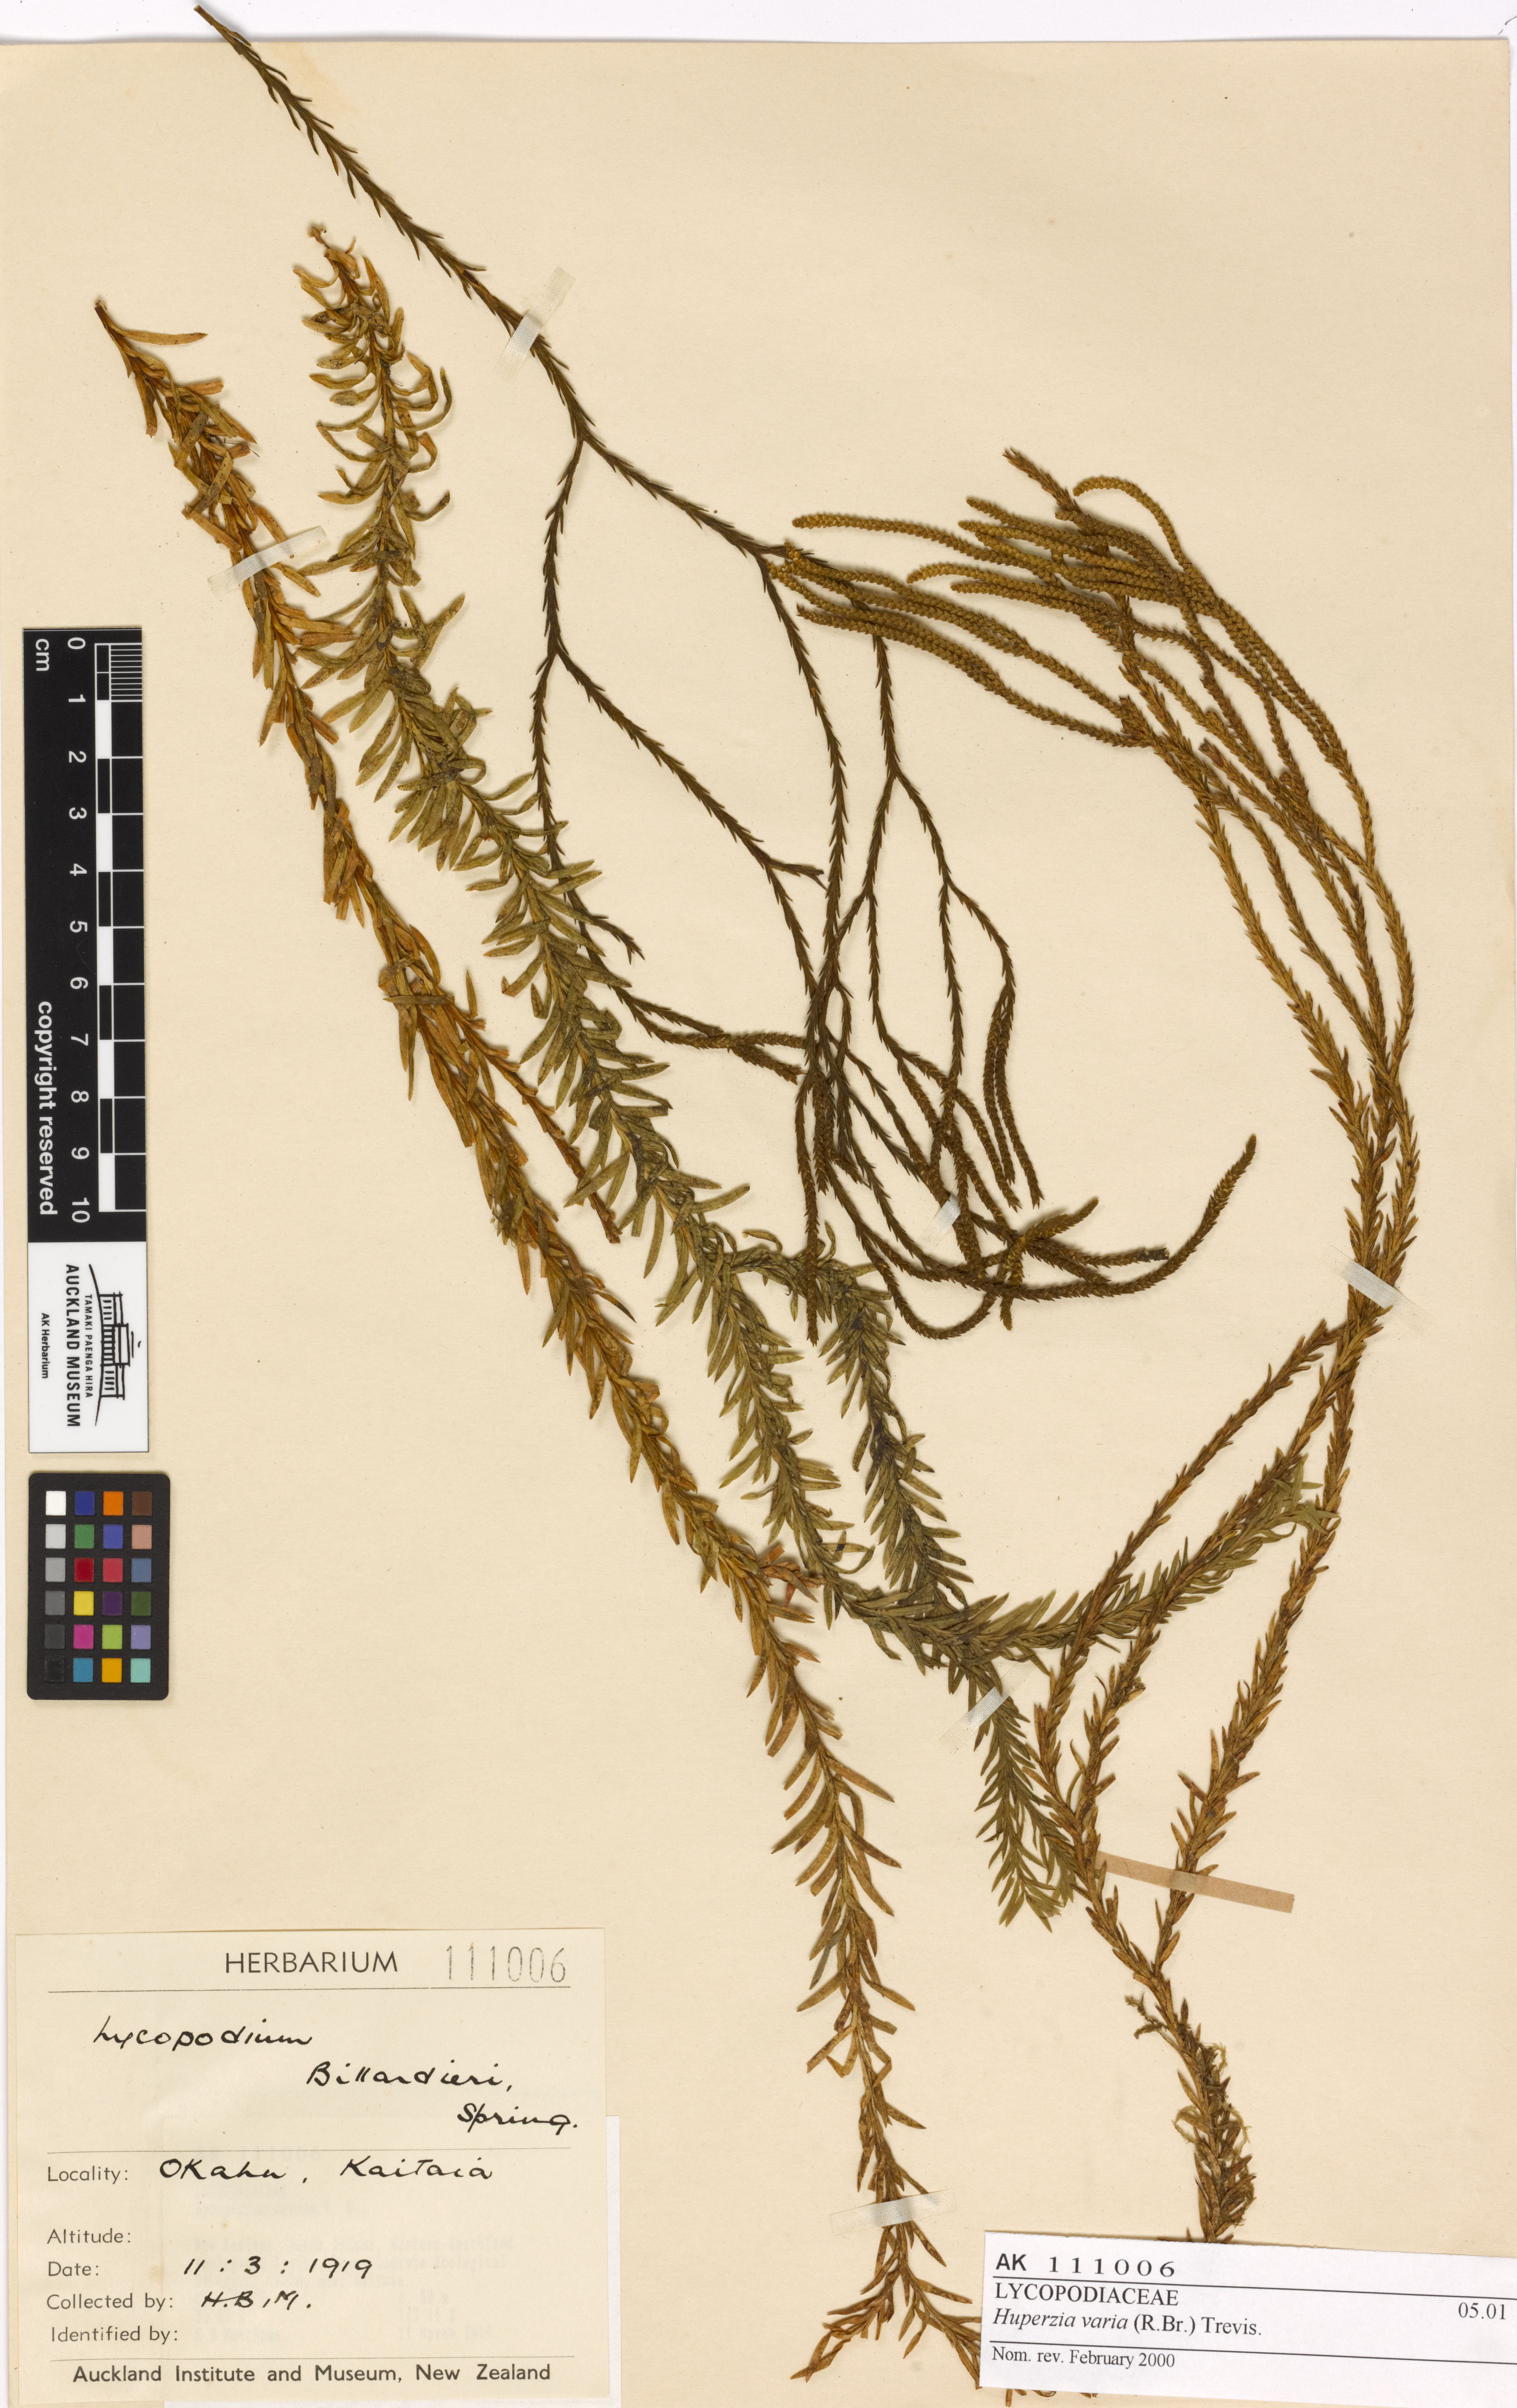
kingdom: Plantae
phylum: Tracheophyta
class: Lycopodiopsida
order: Lycopodiales
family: Lycopodiaceae
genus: Phlegmariurus
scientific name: Phlegmariurus billardierei
